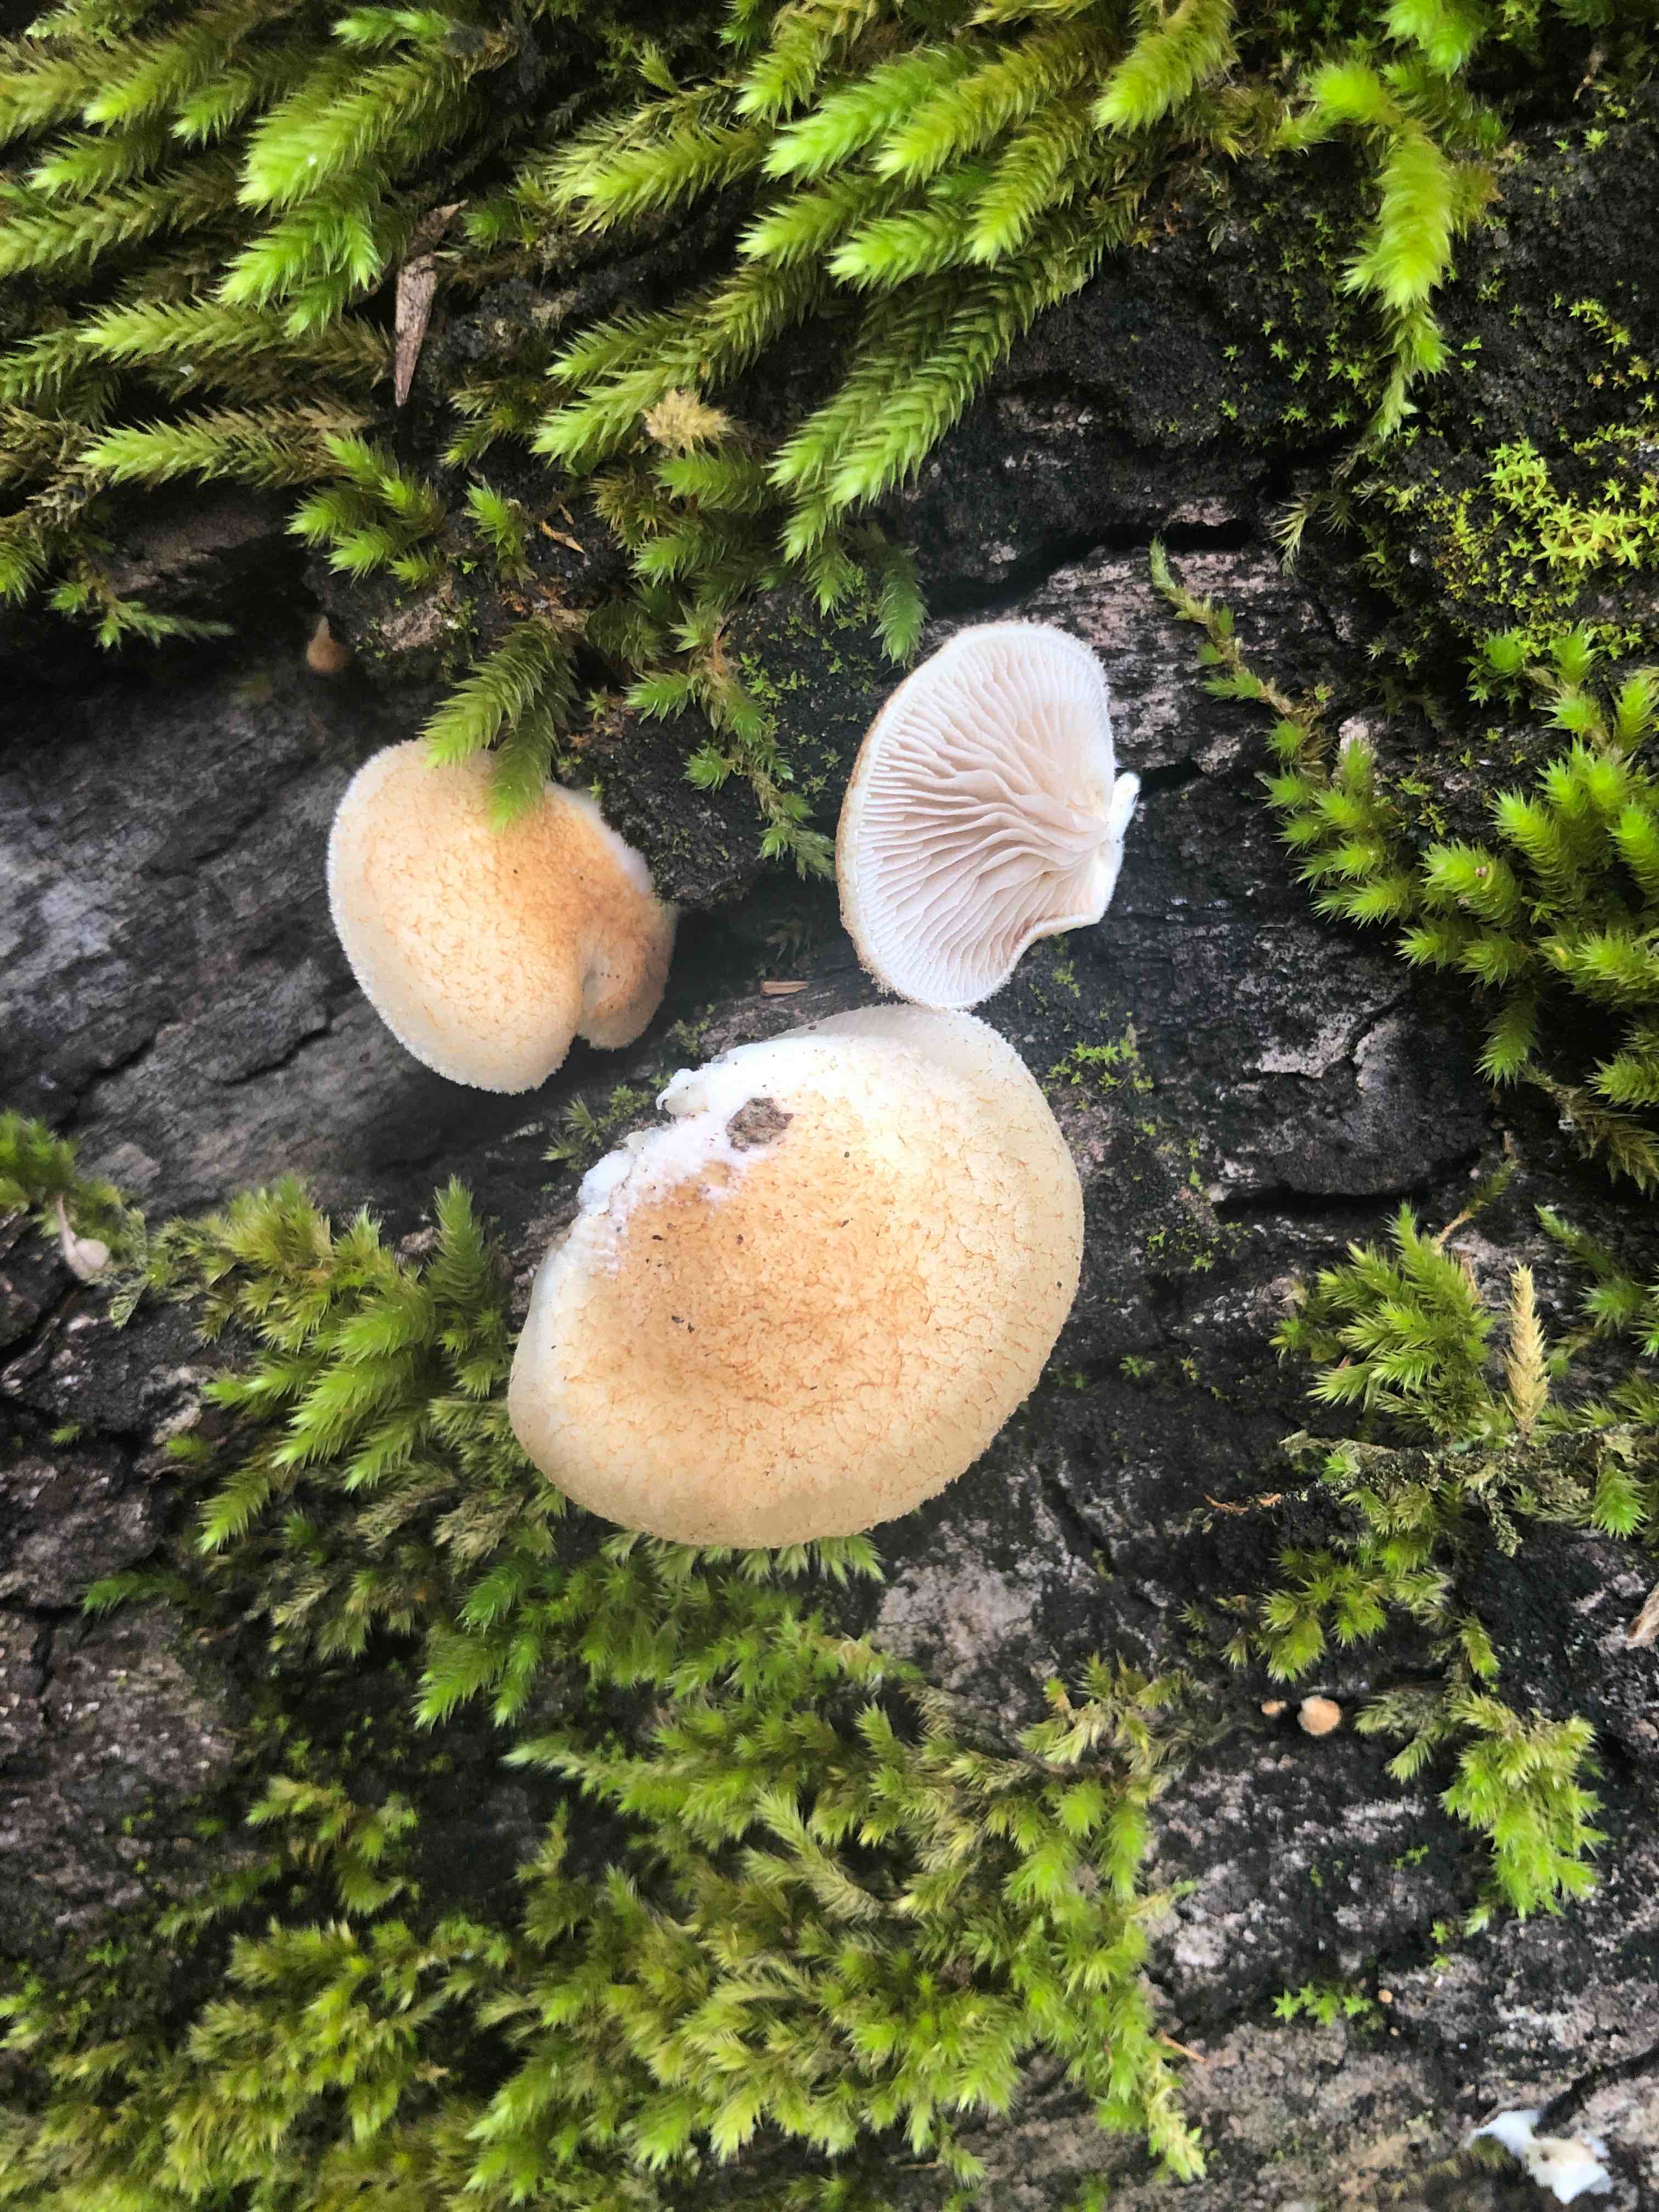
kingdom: Fungi
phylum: Basidiomycota
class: Agaricomycetes
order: Agaricales
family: Crepidotaceae
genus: Crepidotus
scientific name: Crepidotus calolepis
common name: småskællet muslingesvamp
